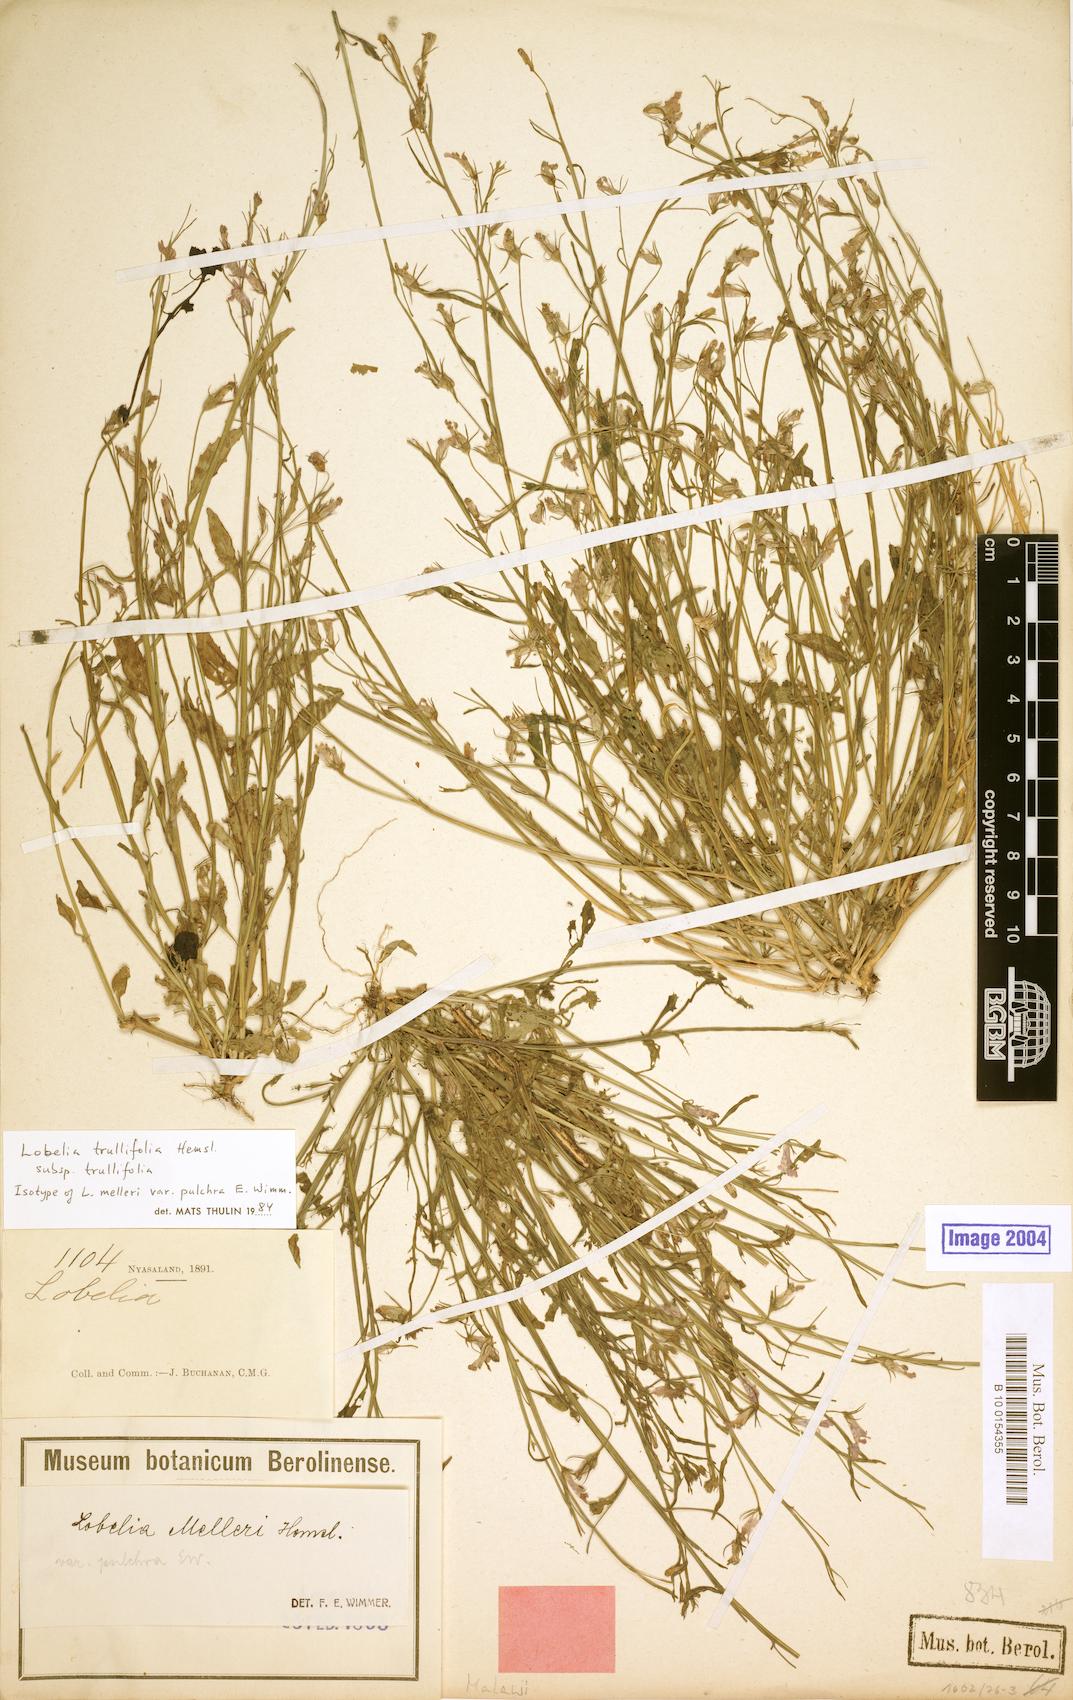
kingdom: Plantae
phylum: Tracheophyta
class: Magnoliopsida
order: Asterales
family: Campanulaceae
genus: Lobelia
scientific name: Lobelia trullifolia
